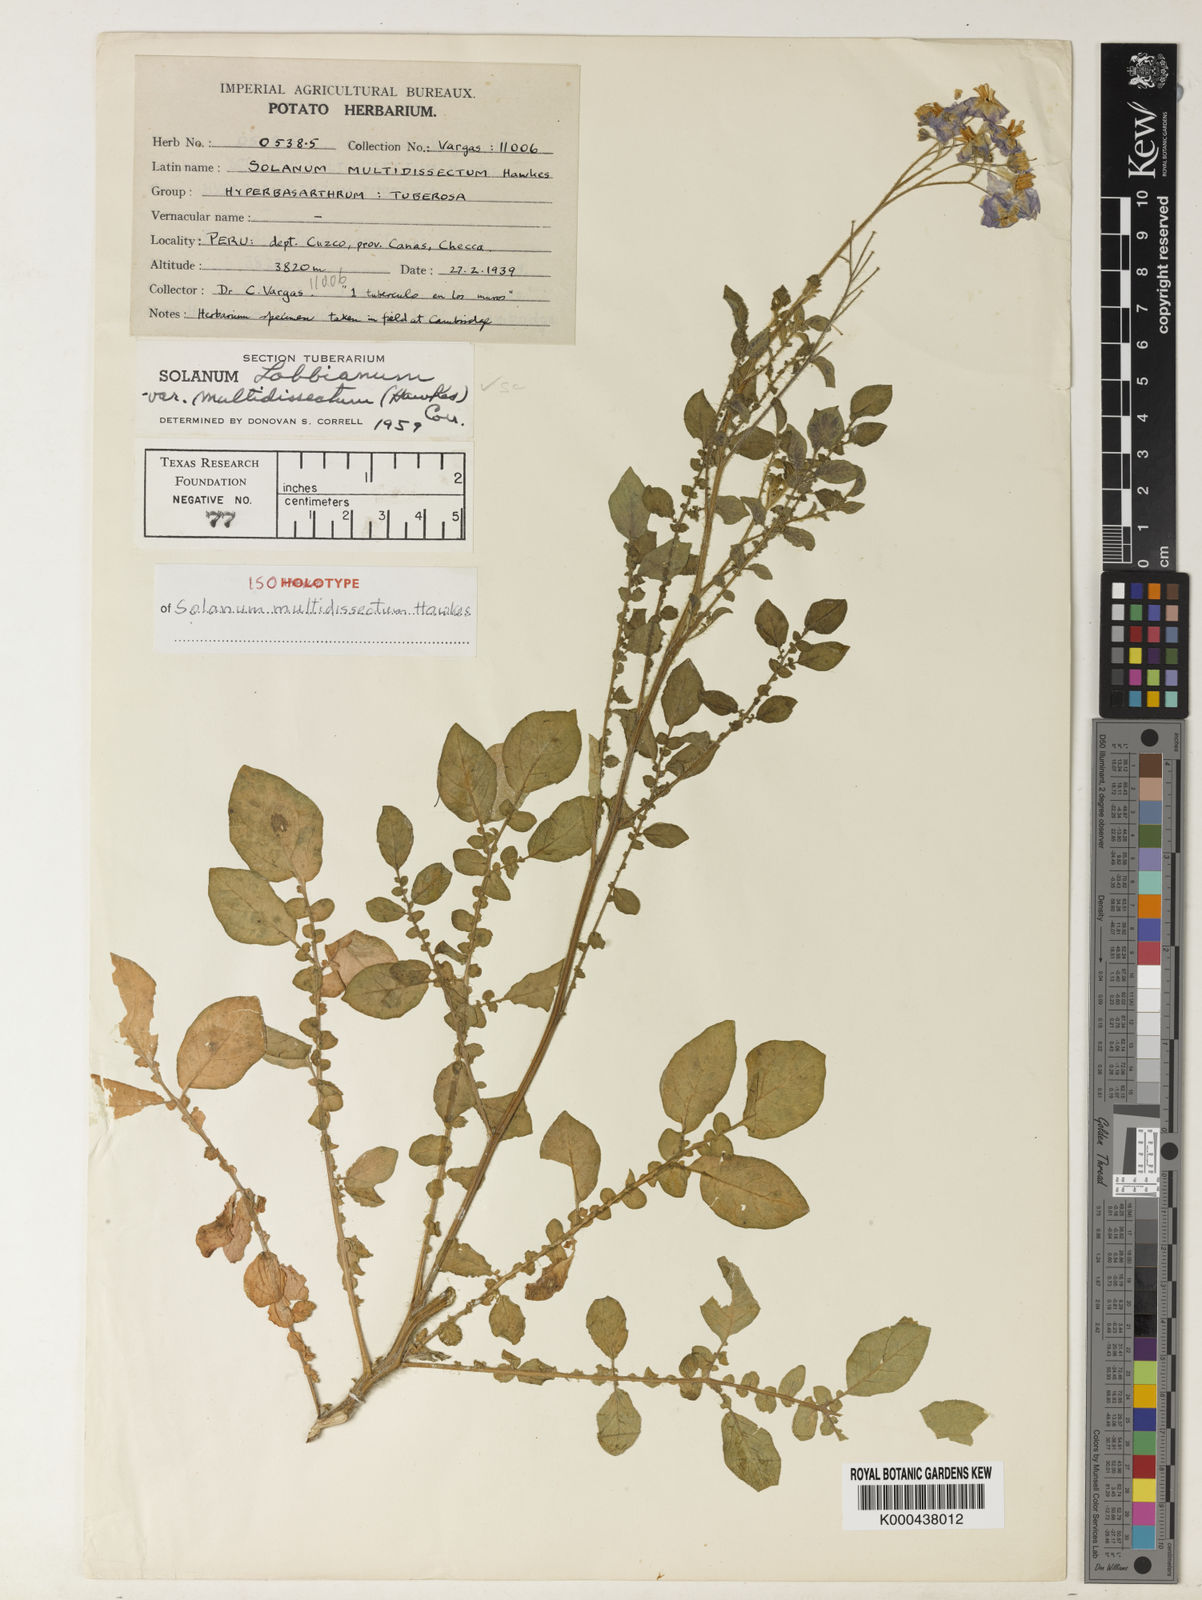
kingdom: Plantae
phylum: Tracheophyta
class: Magnoliopsida
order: Solanales
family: Solanaceae
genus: Solanum
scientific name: Solanum candolleanum
